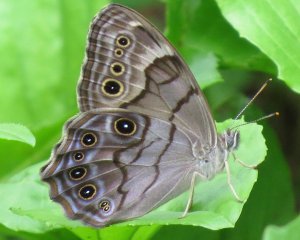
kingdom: Animalia
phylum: Arthropoda
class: Insecta
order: Lepidoptera
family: Nymphalidae
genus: Lethe
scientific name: Lethe anthedon
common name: Northern Pearly-Eye
